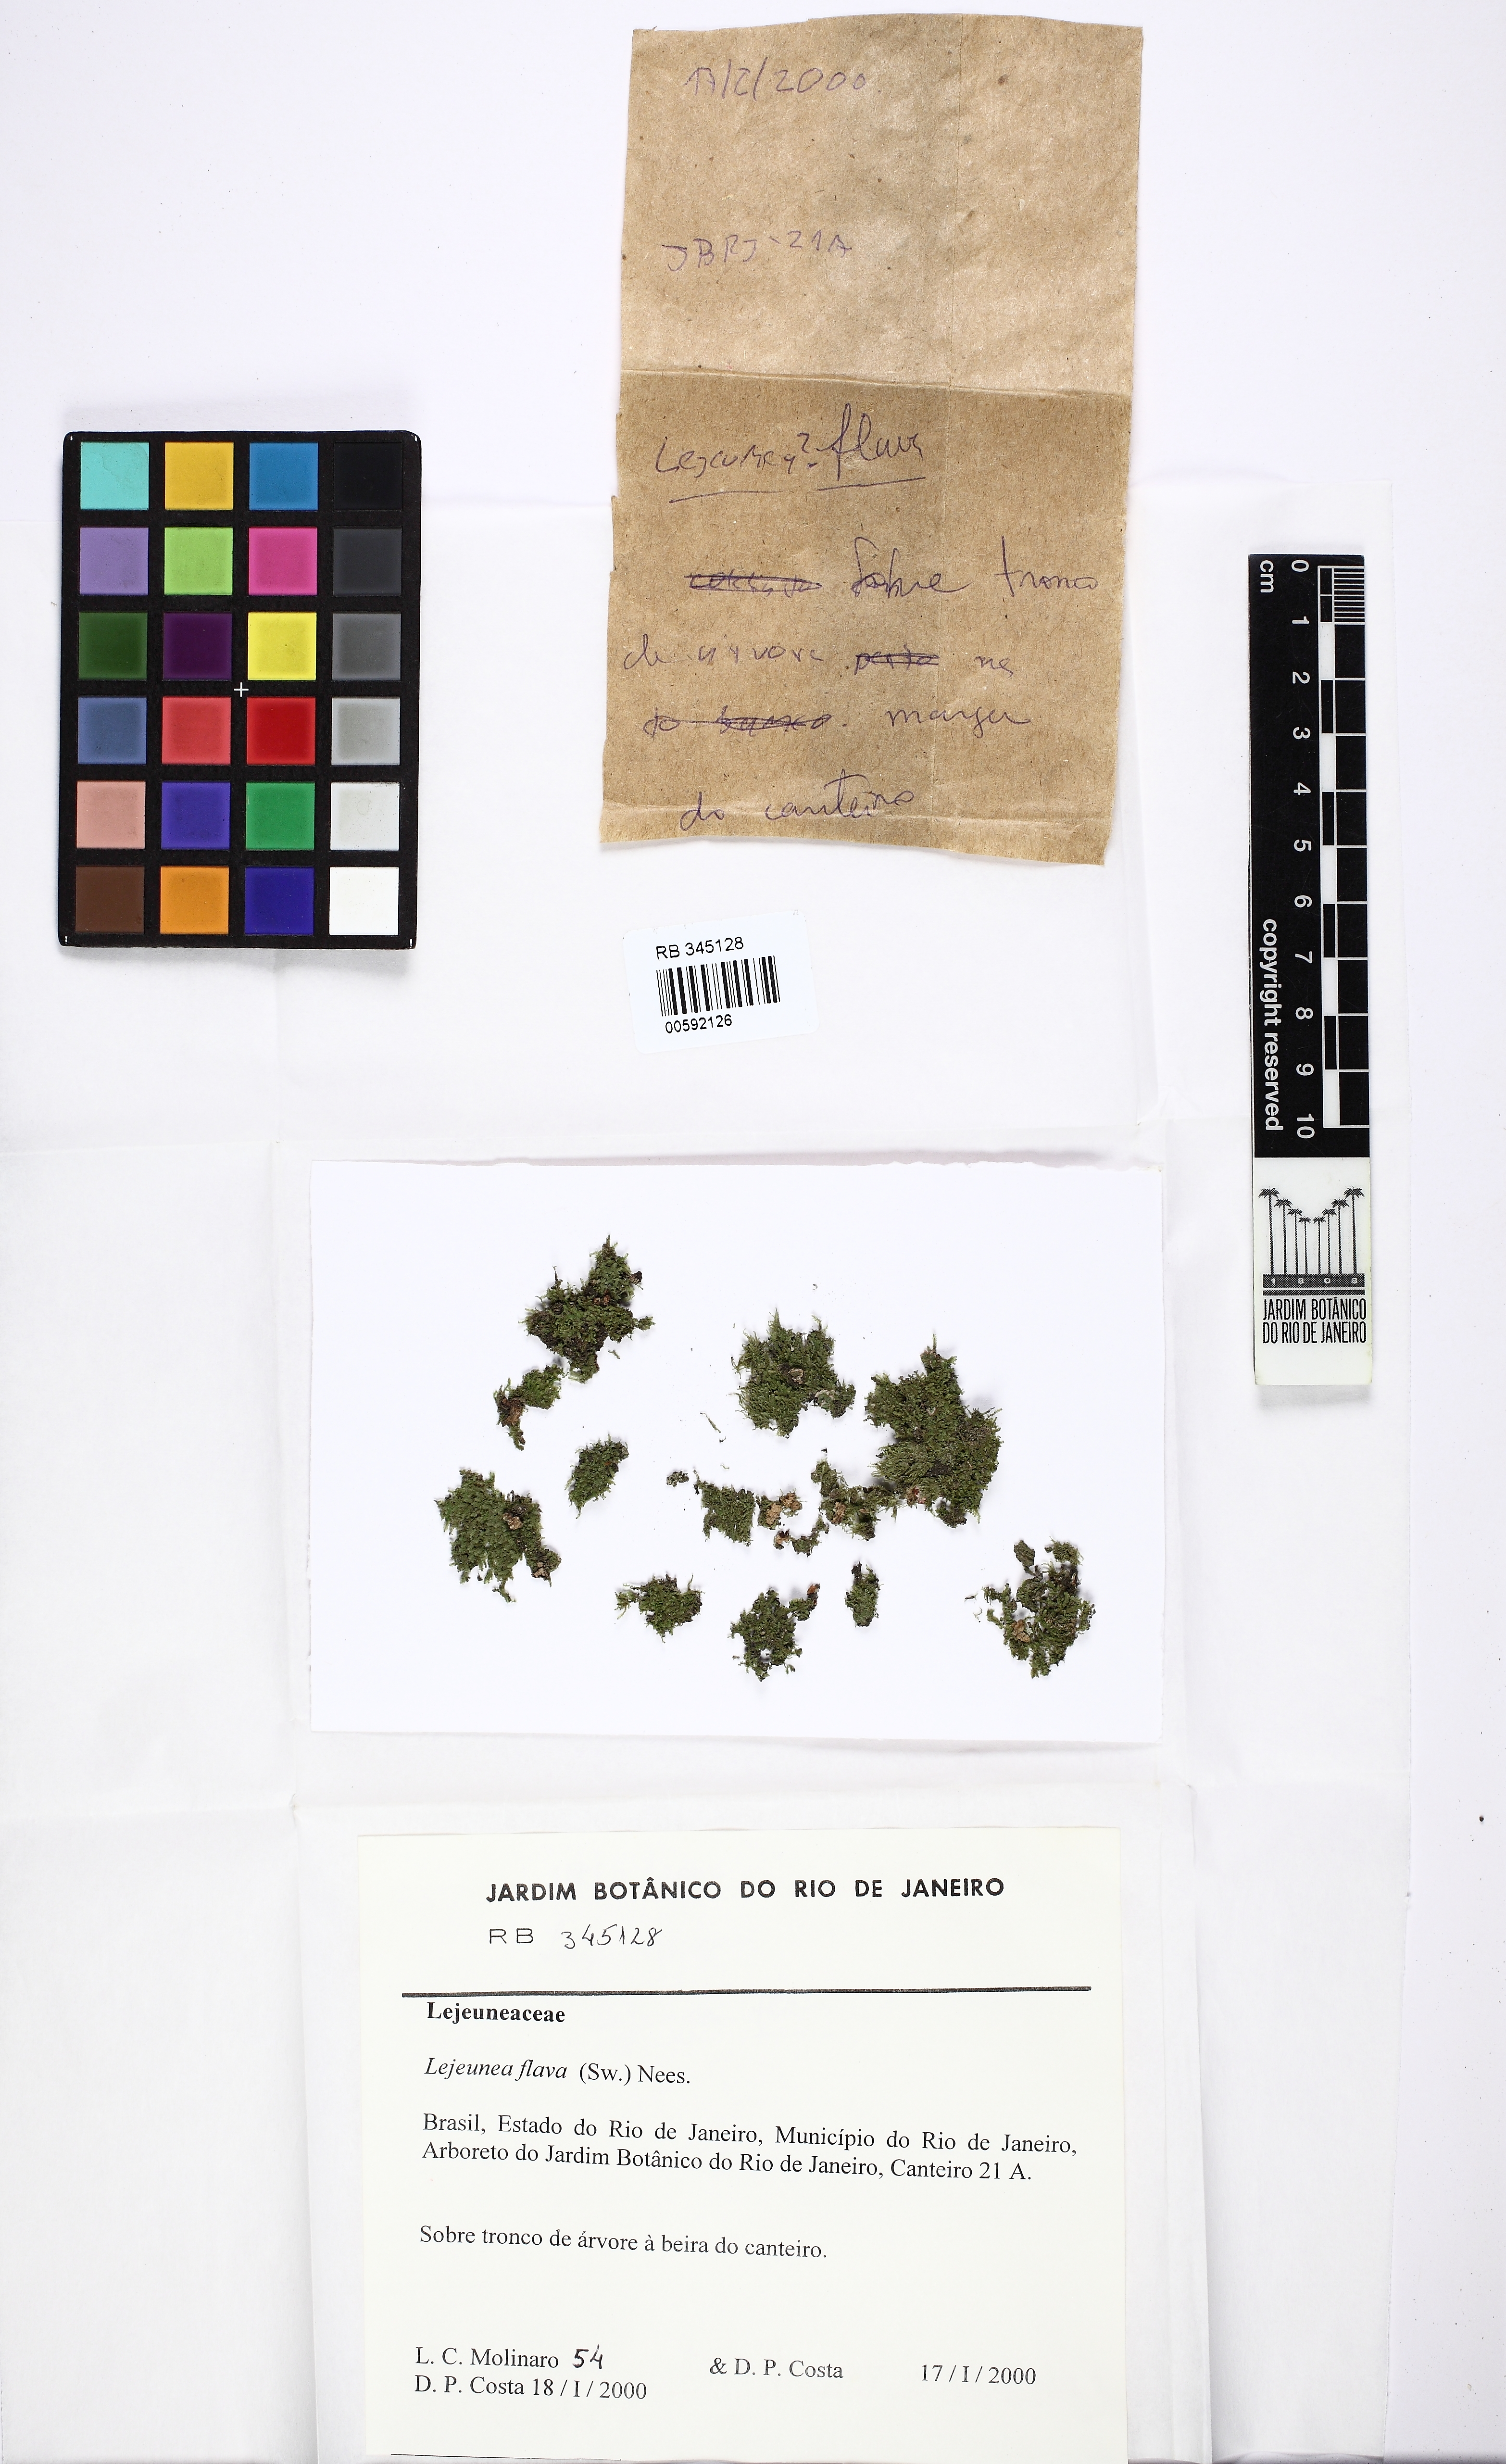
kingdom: Plantae
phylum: Marchantiophyta
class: Jungermanniopsida
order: Porellales
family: Lejeuneaceae
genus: Lejeunea
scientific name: Lejeunea flava
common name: Yellow pouncewort
